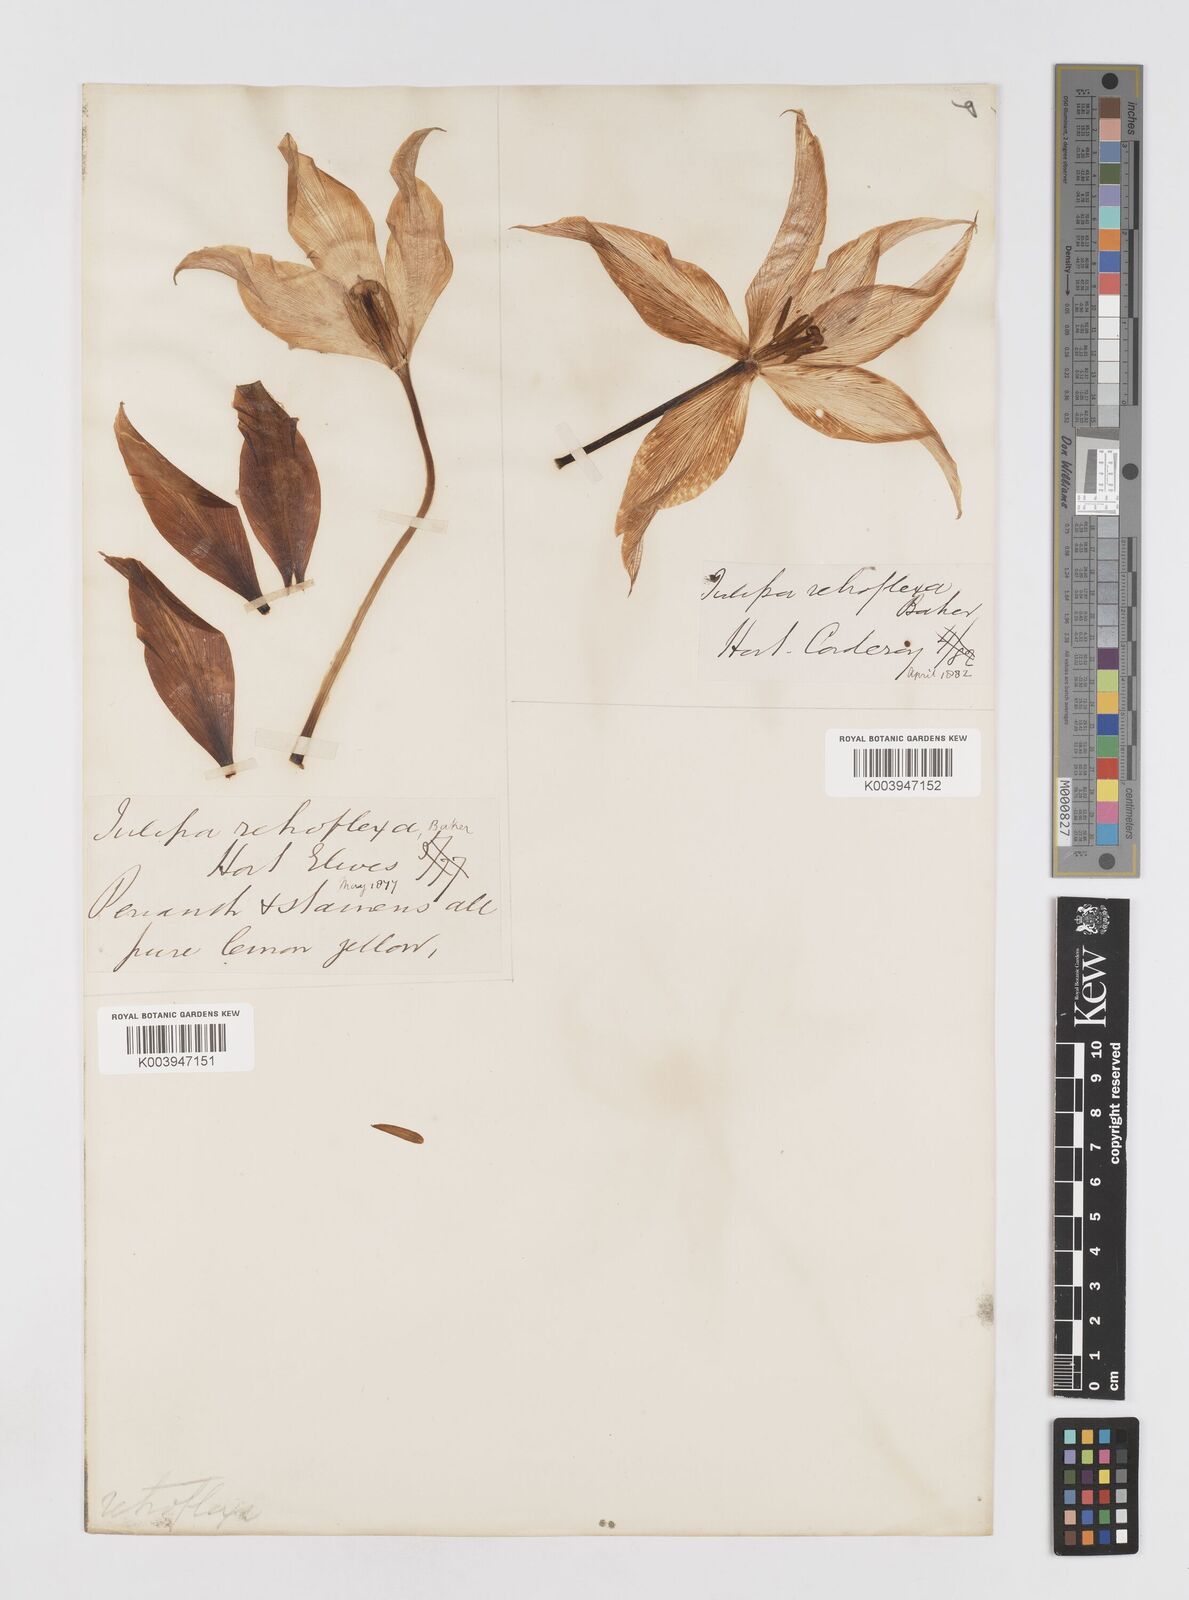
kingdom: Plantae
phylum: Tracheophyta
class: Liliopsida
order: Liliales
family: Liliaceae
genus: Tulipa
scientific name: Tulipa gesneriana
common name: Garden tulip
